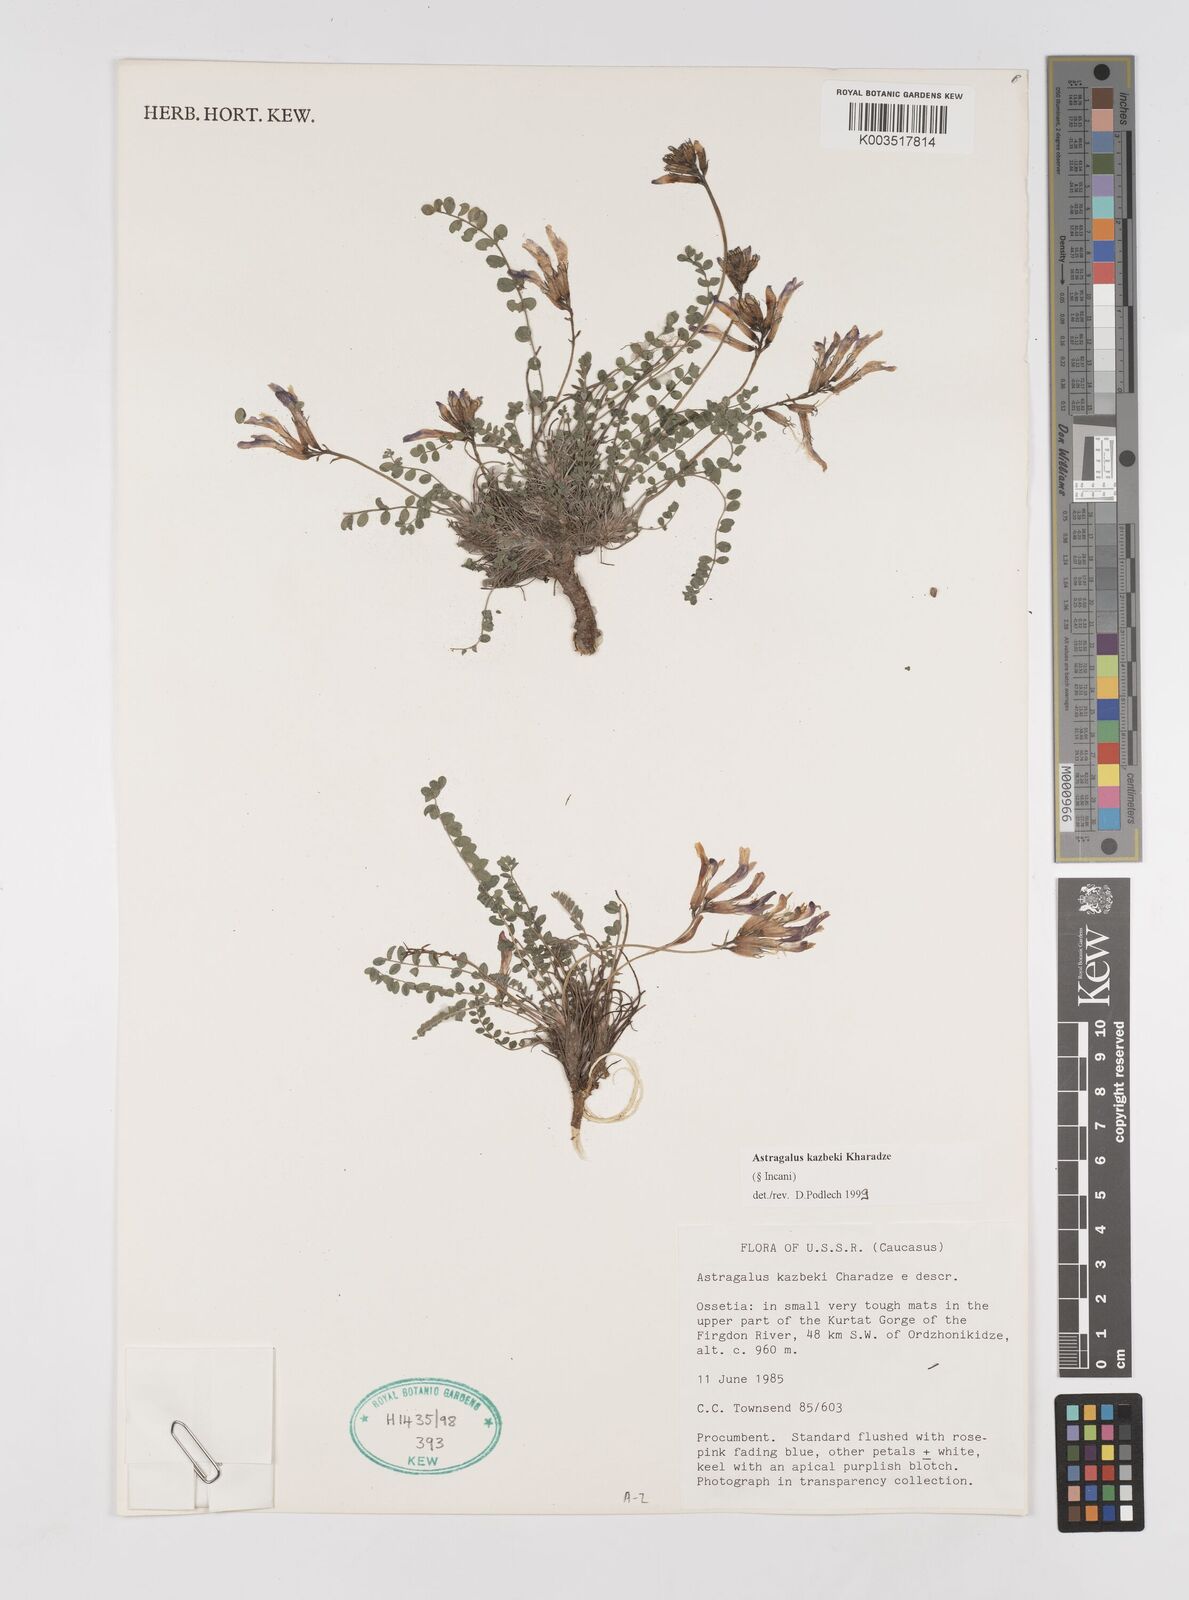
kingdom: Plantae
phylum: Tracheophyta
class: Magnoliopsida
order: Fabales
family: Fabaceae
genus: Astragalus
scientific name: Astragalus kazbeki
